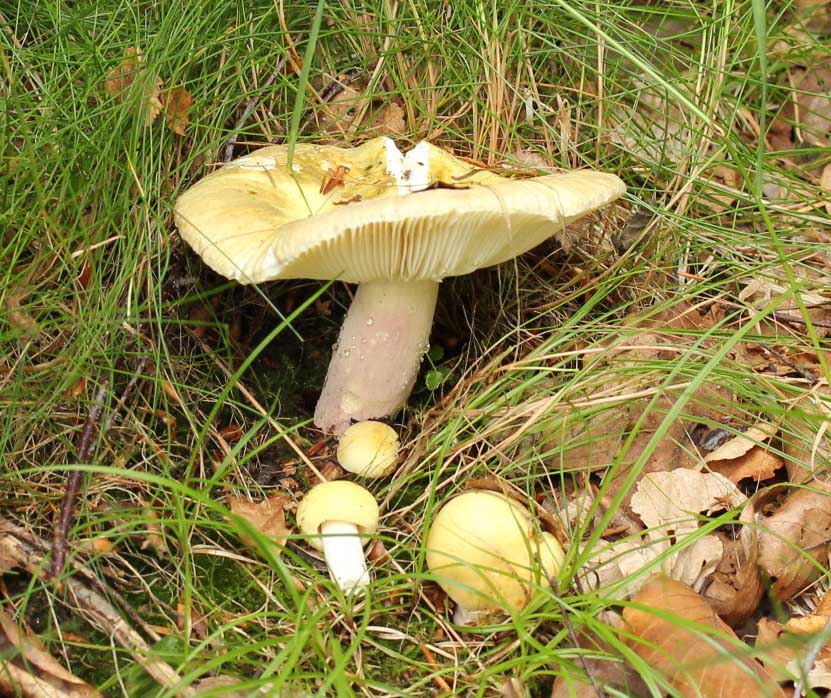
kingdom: Fungi
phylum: Basidiomycota
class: Agaricomycetes
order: Russulales
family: Russulaceae
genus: Russula
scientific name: Russula violeipes
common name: ferskengul skørhat
